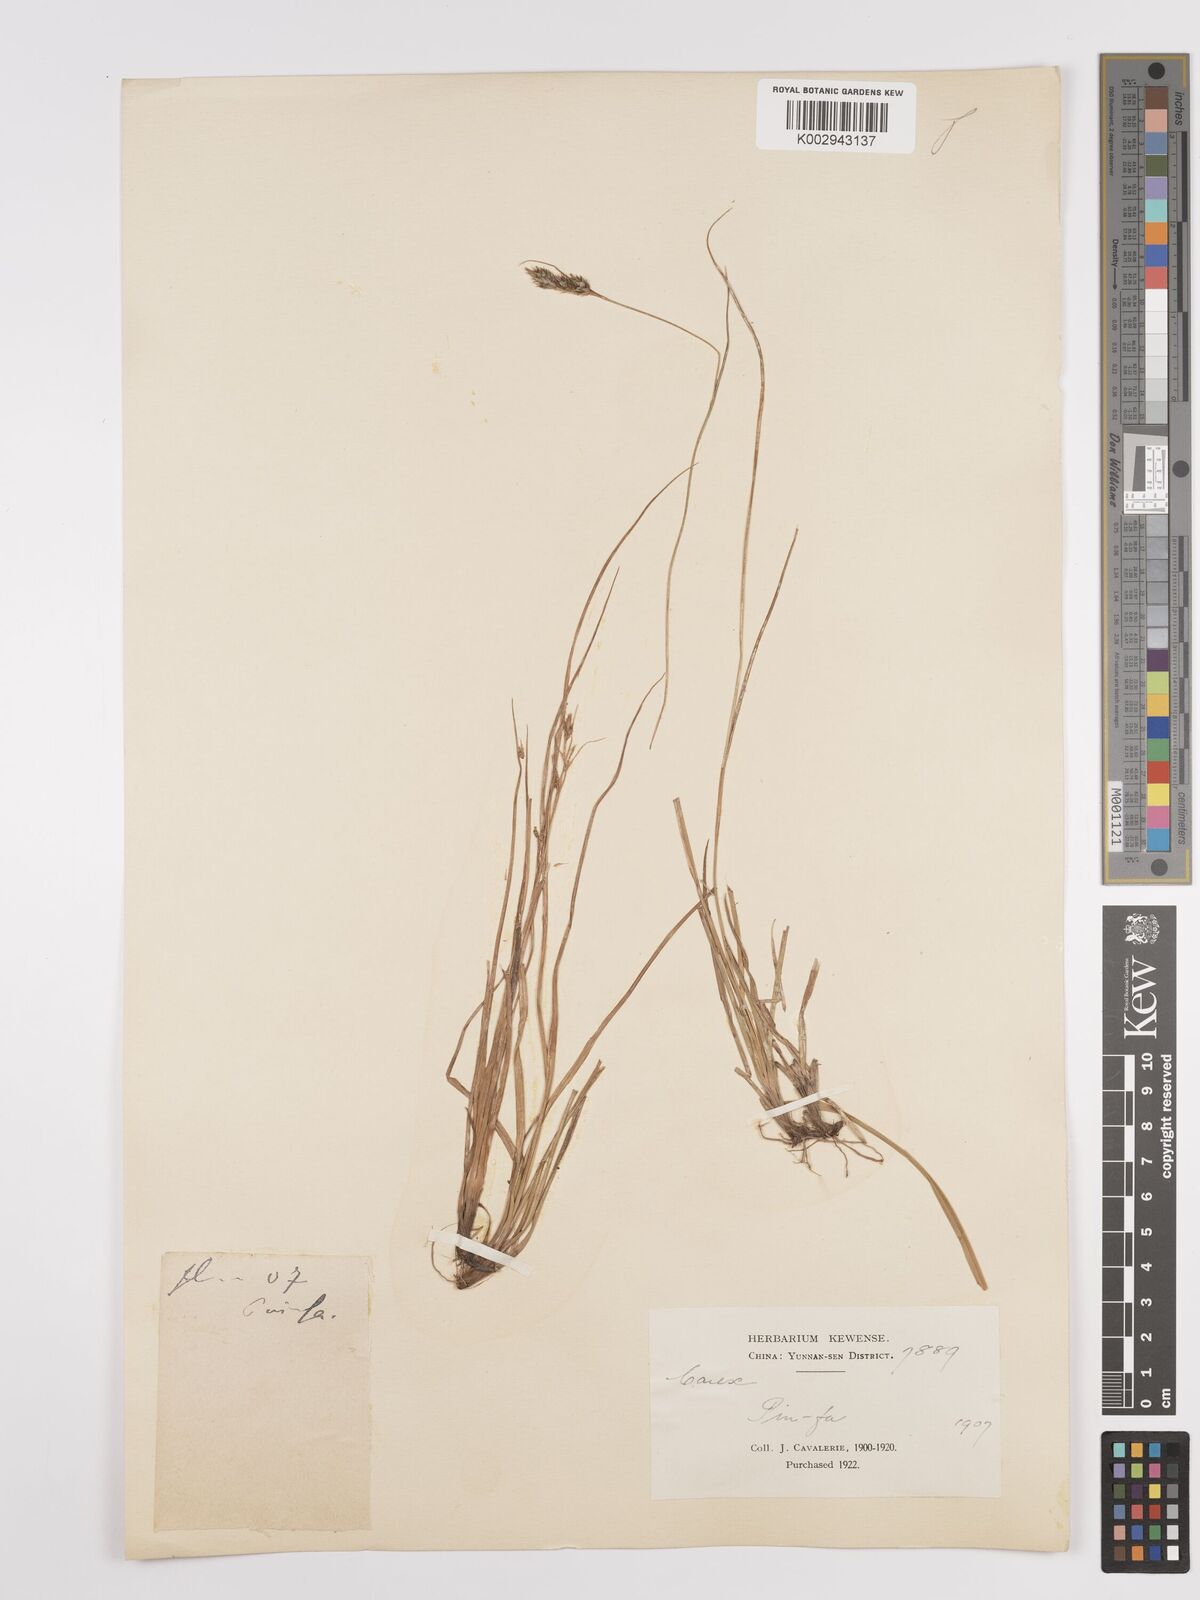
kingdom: Plantae
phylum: Tracheophyta
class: Liliopsida
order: Poales
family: Cyperaceae
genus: Carex
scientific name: Carex
